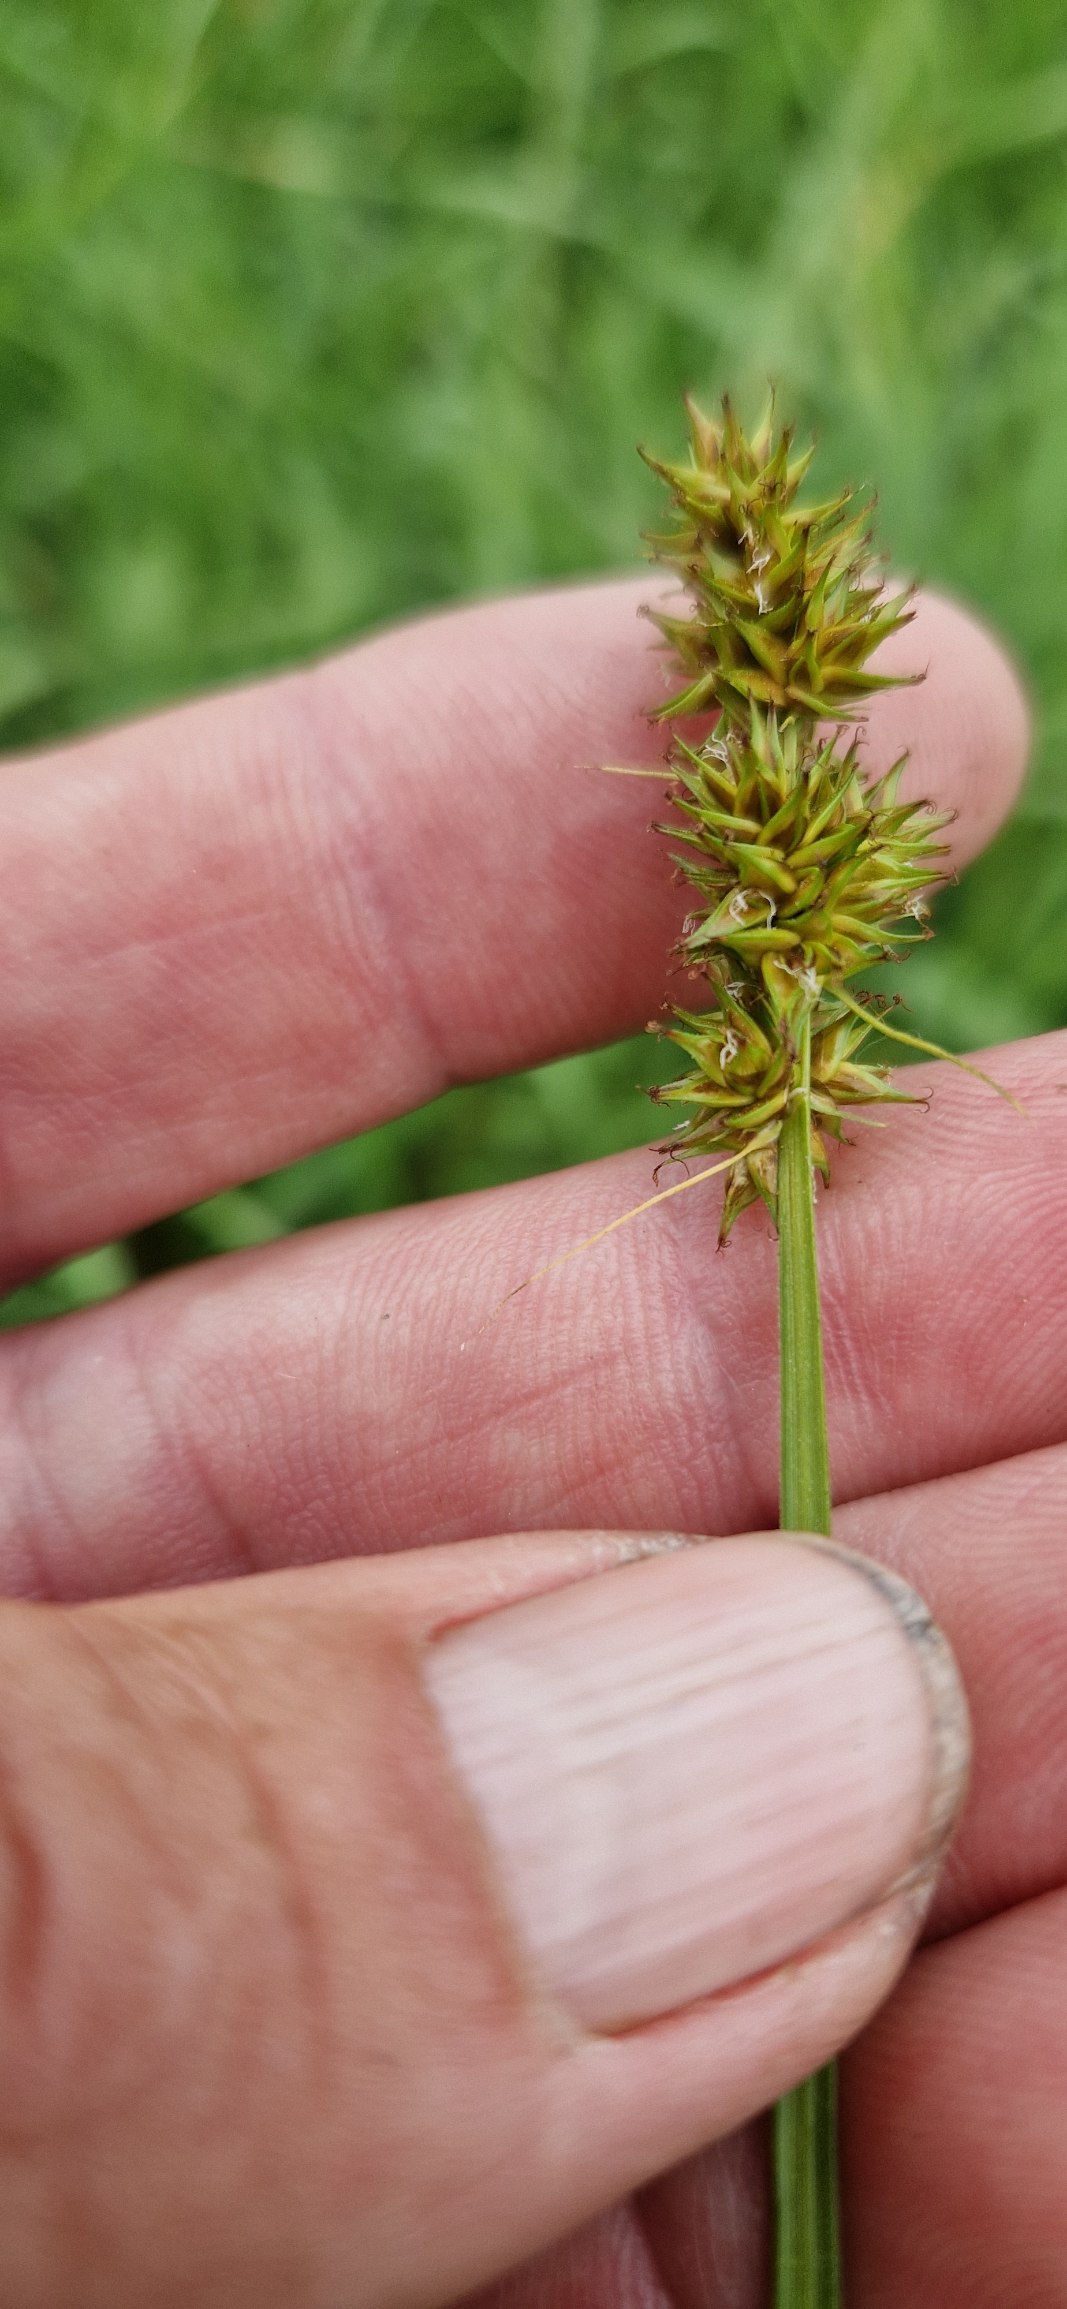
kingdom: Plantae
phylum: Tracheophyta
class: Liliopsida
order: Poales
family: Cyperaceae
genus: Carex
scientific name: Carex otrubae
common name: Sylt-star
